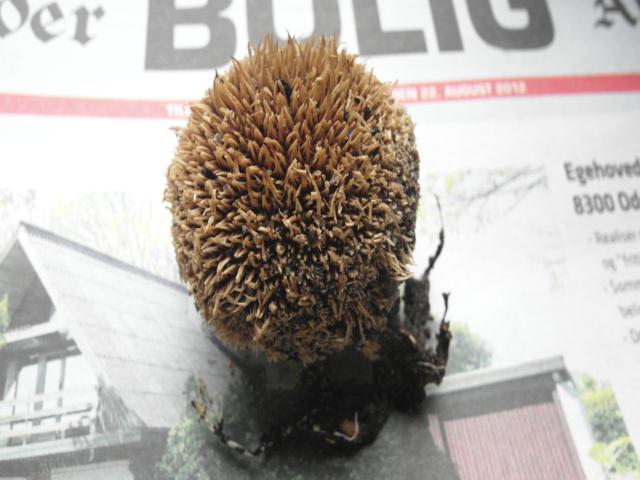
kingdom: Fungi
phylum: Basidiomycota
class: Agaricomycetes
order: Agaricales
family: Lycoperdaceae
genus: Lycoperdon
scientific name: Lycoperdon echinatum
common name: pindsvine-støvbold
